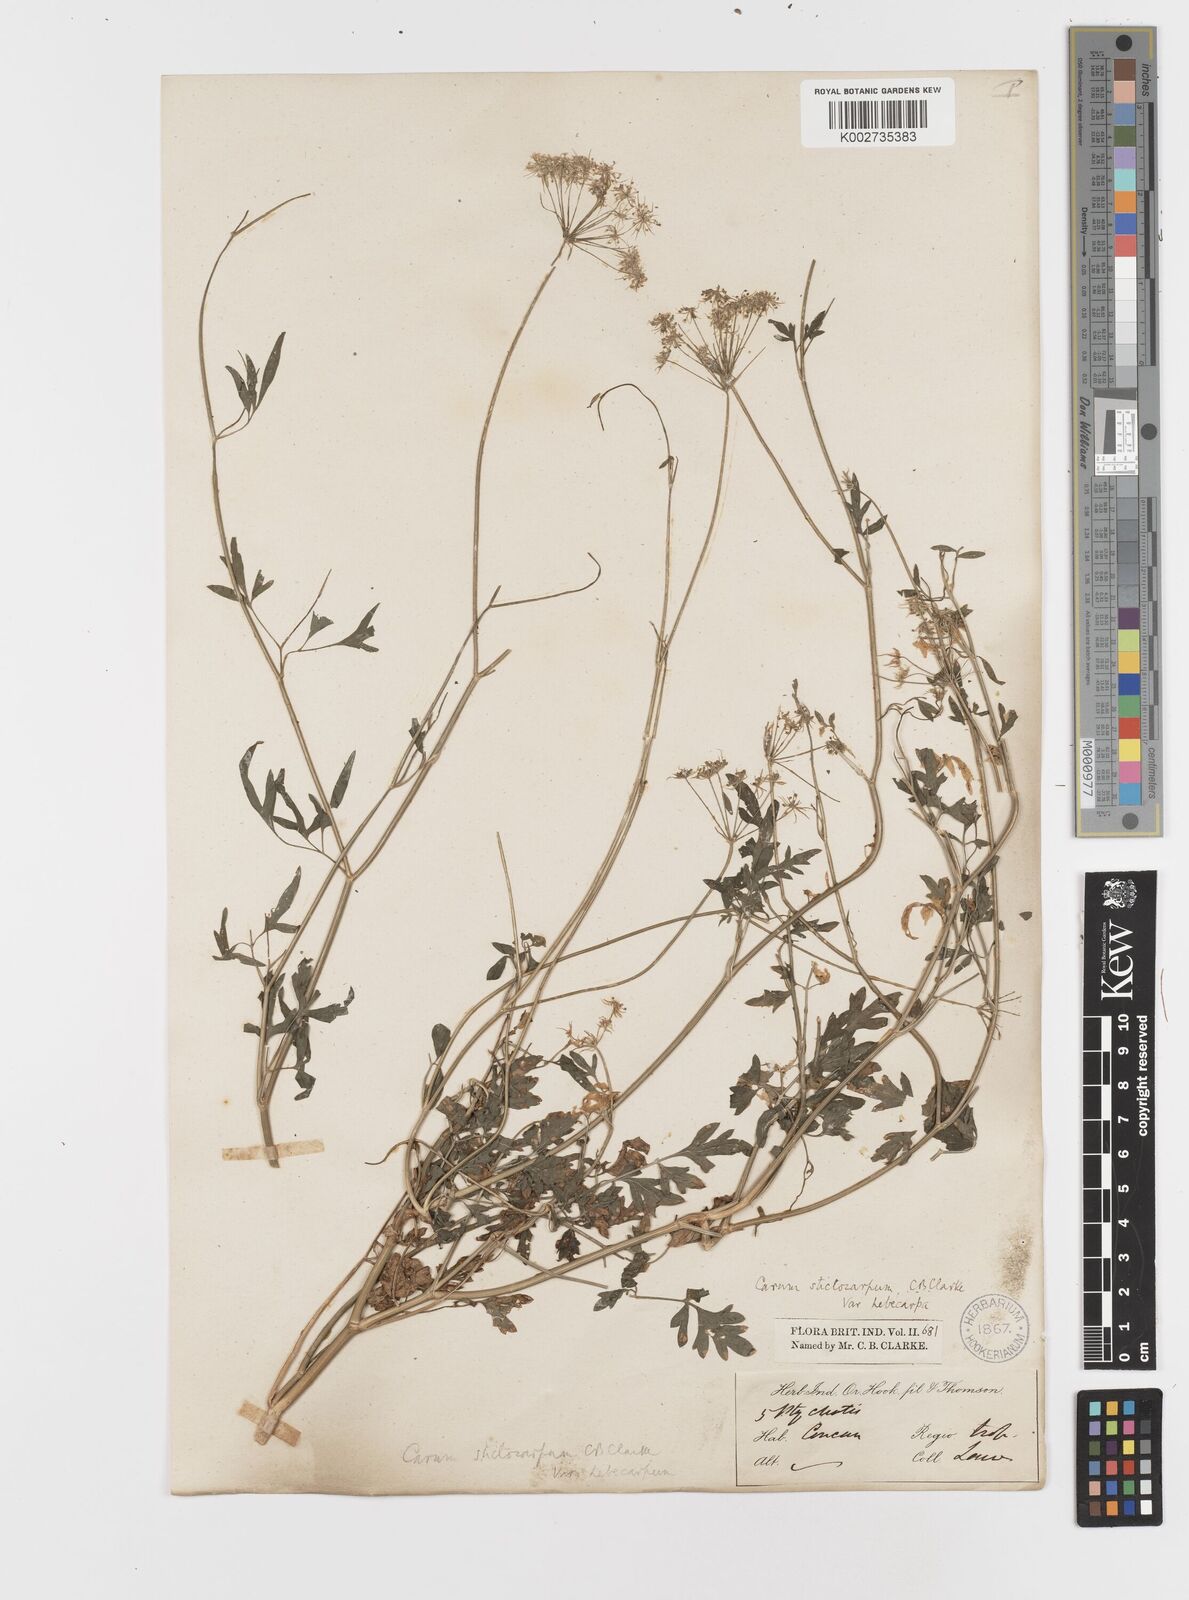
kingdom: Plantae
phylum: Tracheophyta
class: Magnoliopsida
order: Apiales
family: Apiaceae
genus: Psammogeton
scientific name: Psammogeton involucratum
